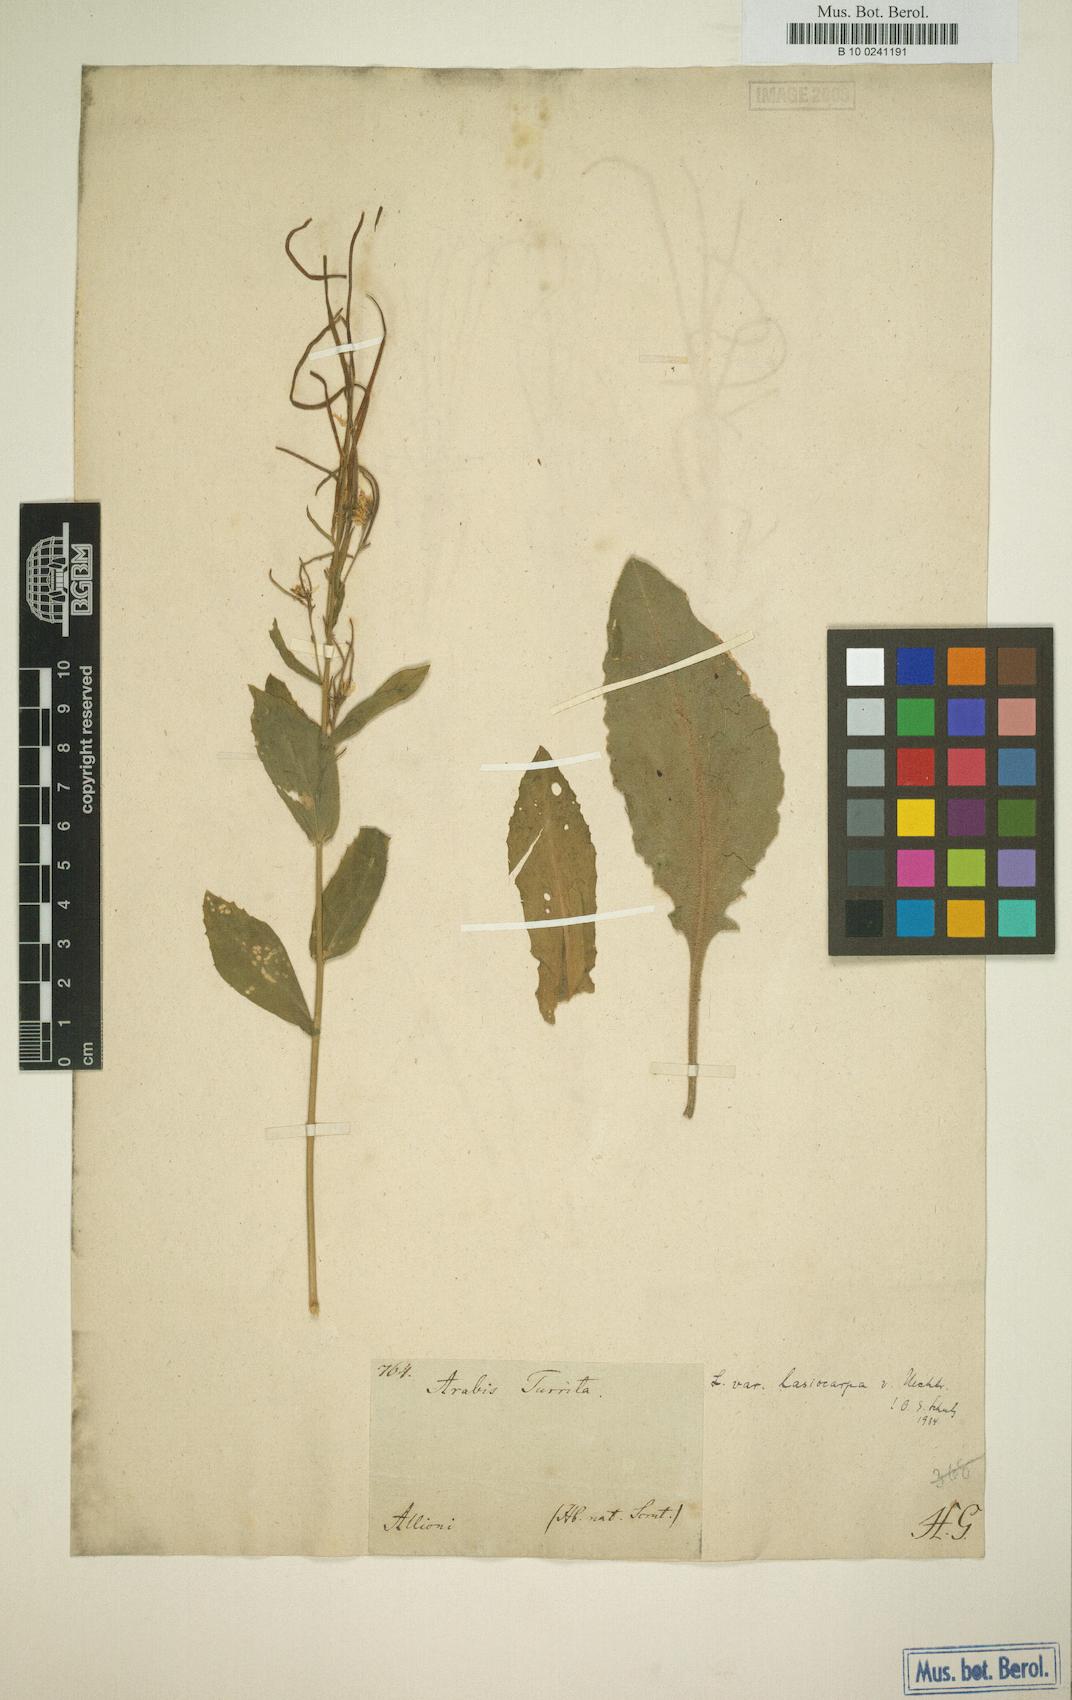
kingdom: Plantae
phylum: Tracheophyta
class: Magnoliopsida
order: Brassicales
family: Brassicaceae
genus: Pseudoturritis
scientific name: Pseudoturritis turrita
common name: Tower cress
